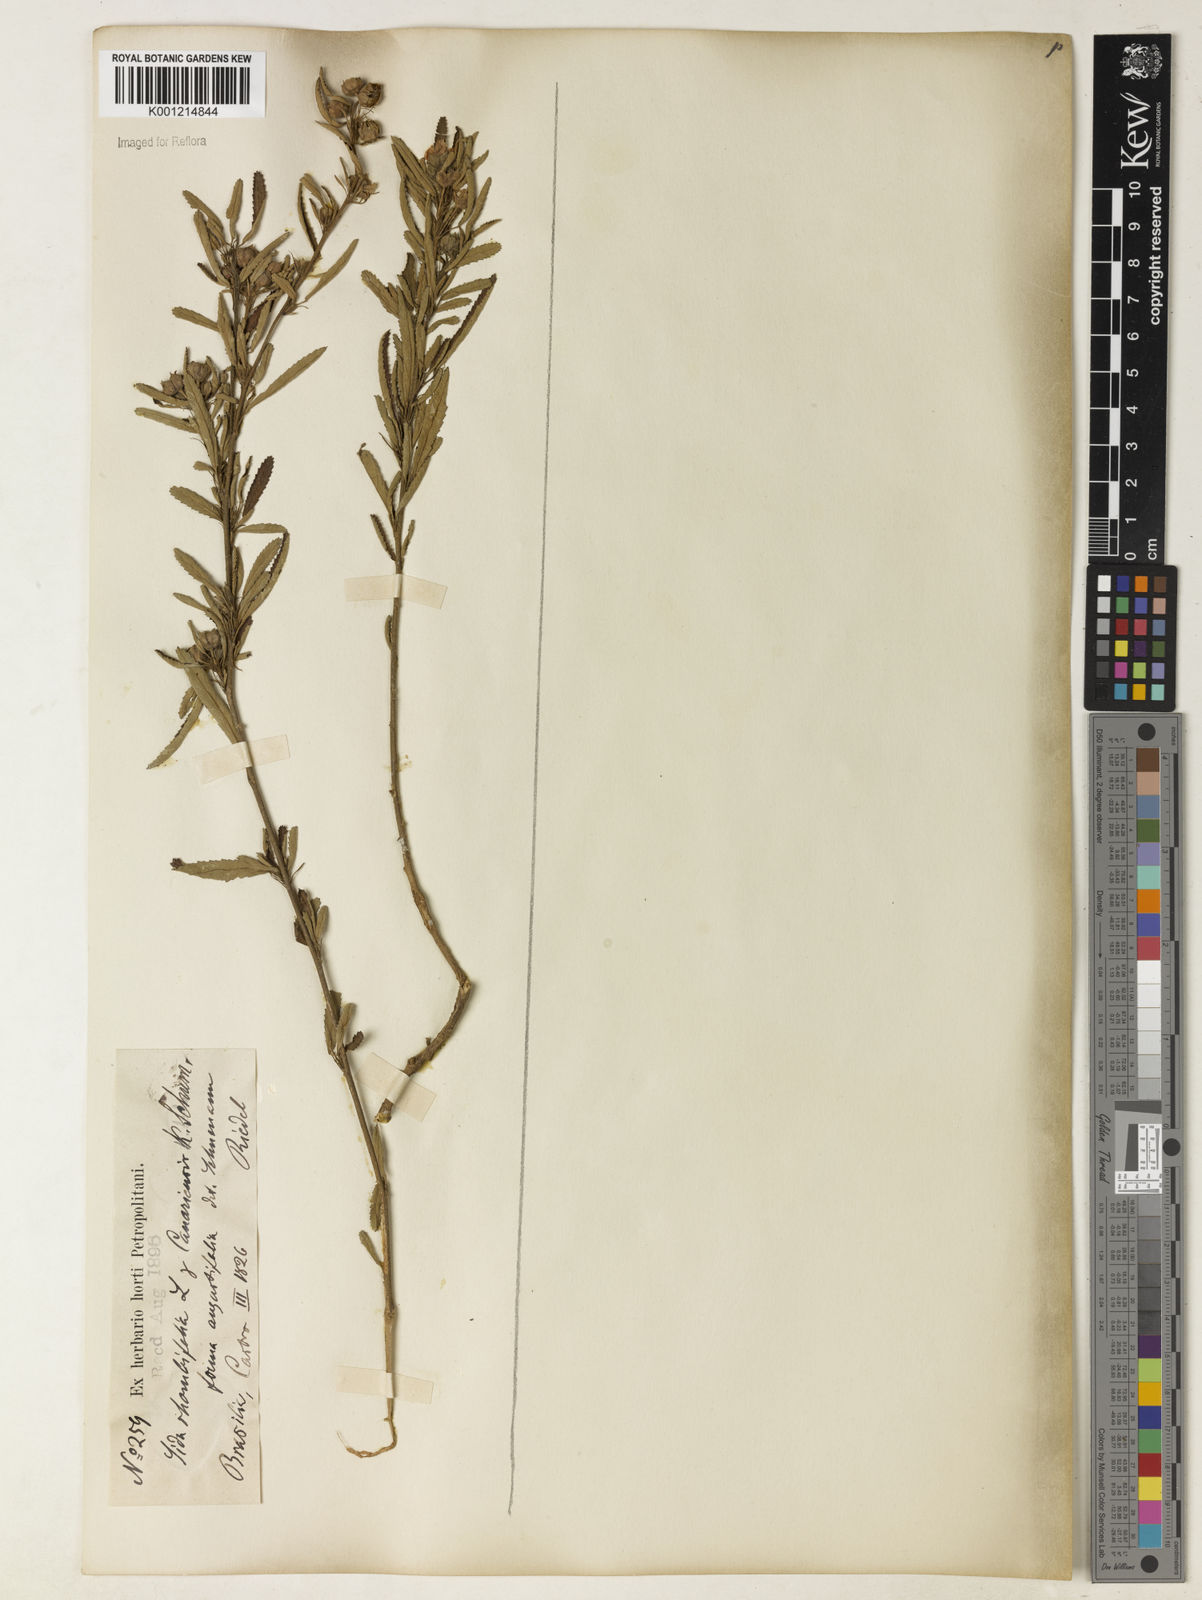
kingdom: Plantae
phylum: Tracheophyta
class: Magnoliopsida
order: Malvales
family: Malvaceae
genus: Sida
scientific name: Sida rhombifolia
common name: Queensland-hemp
